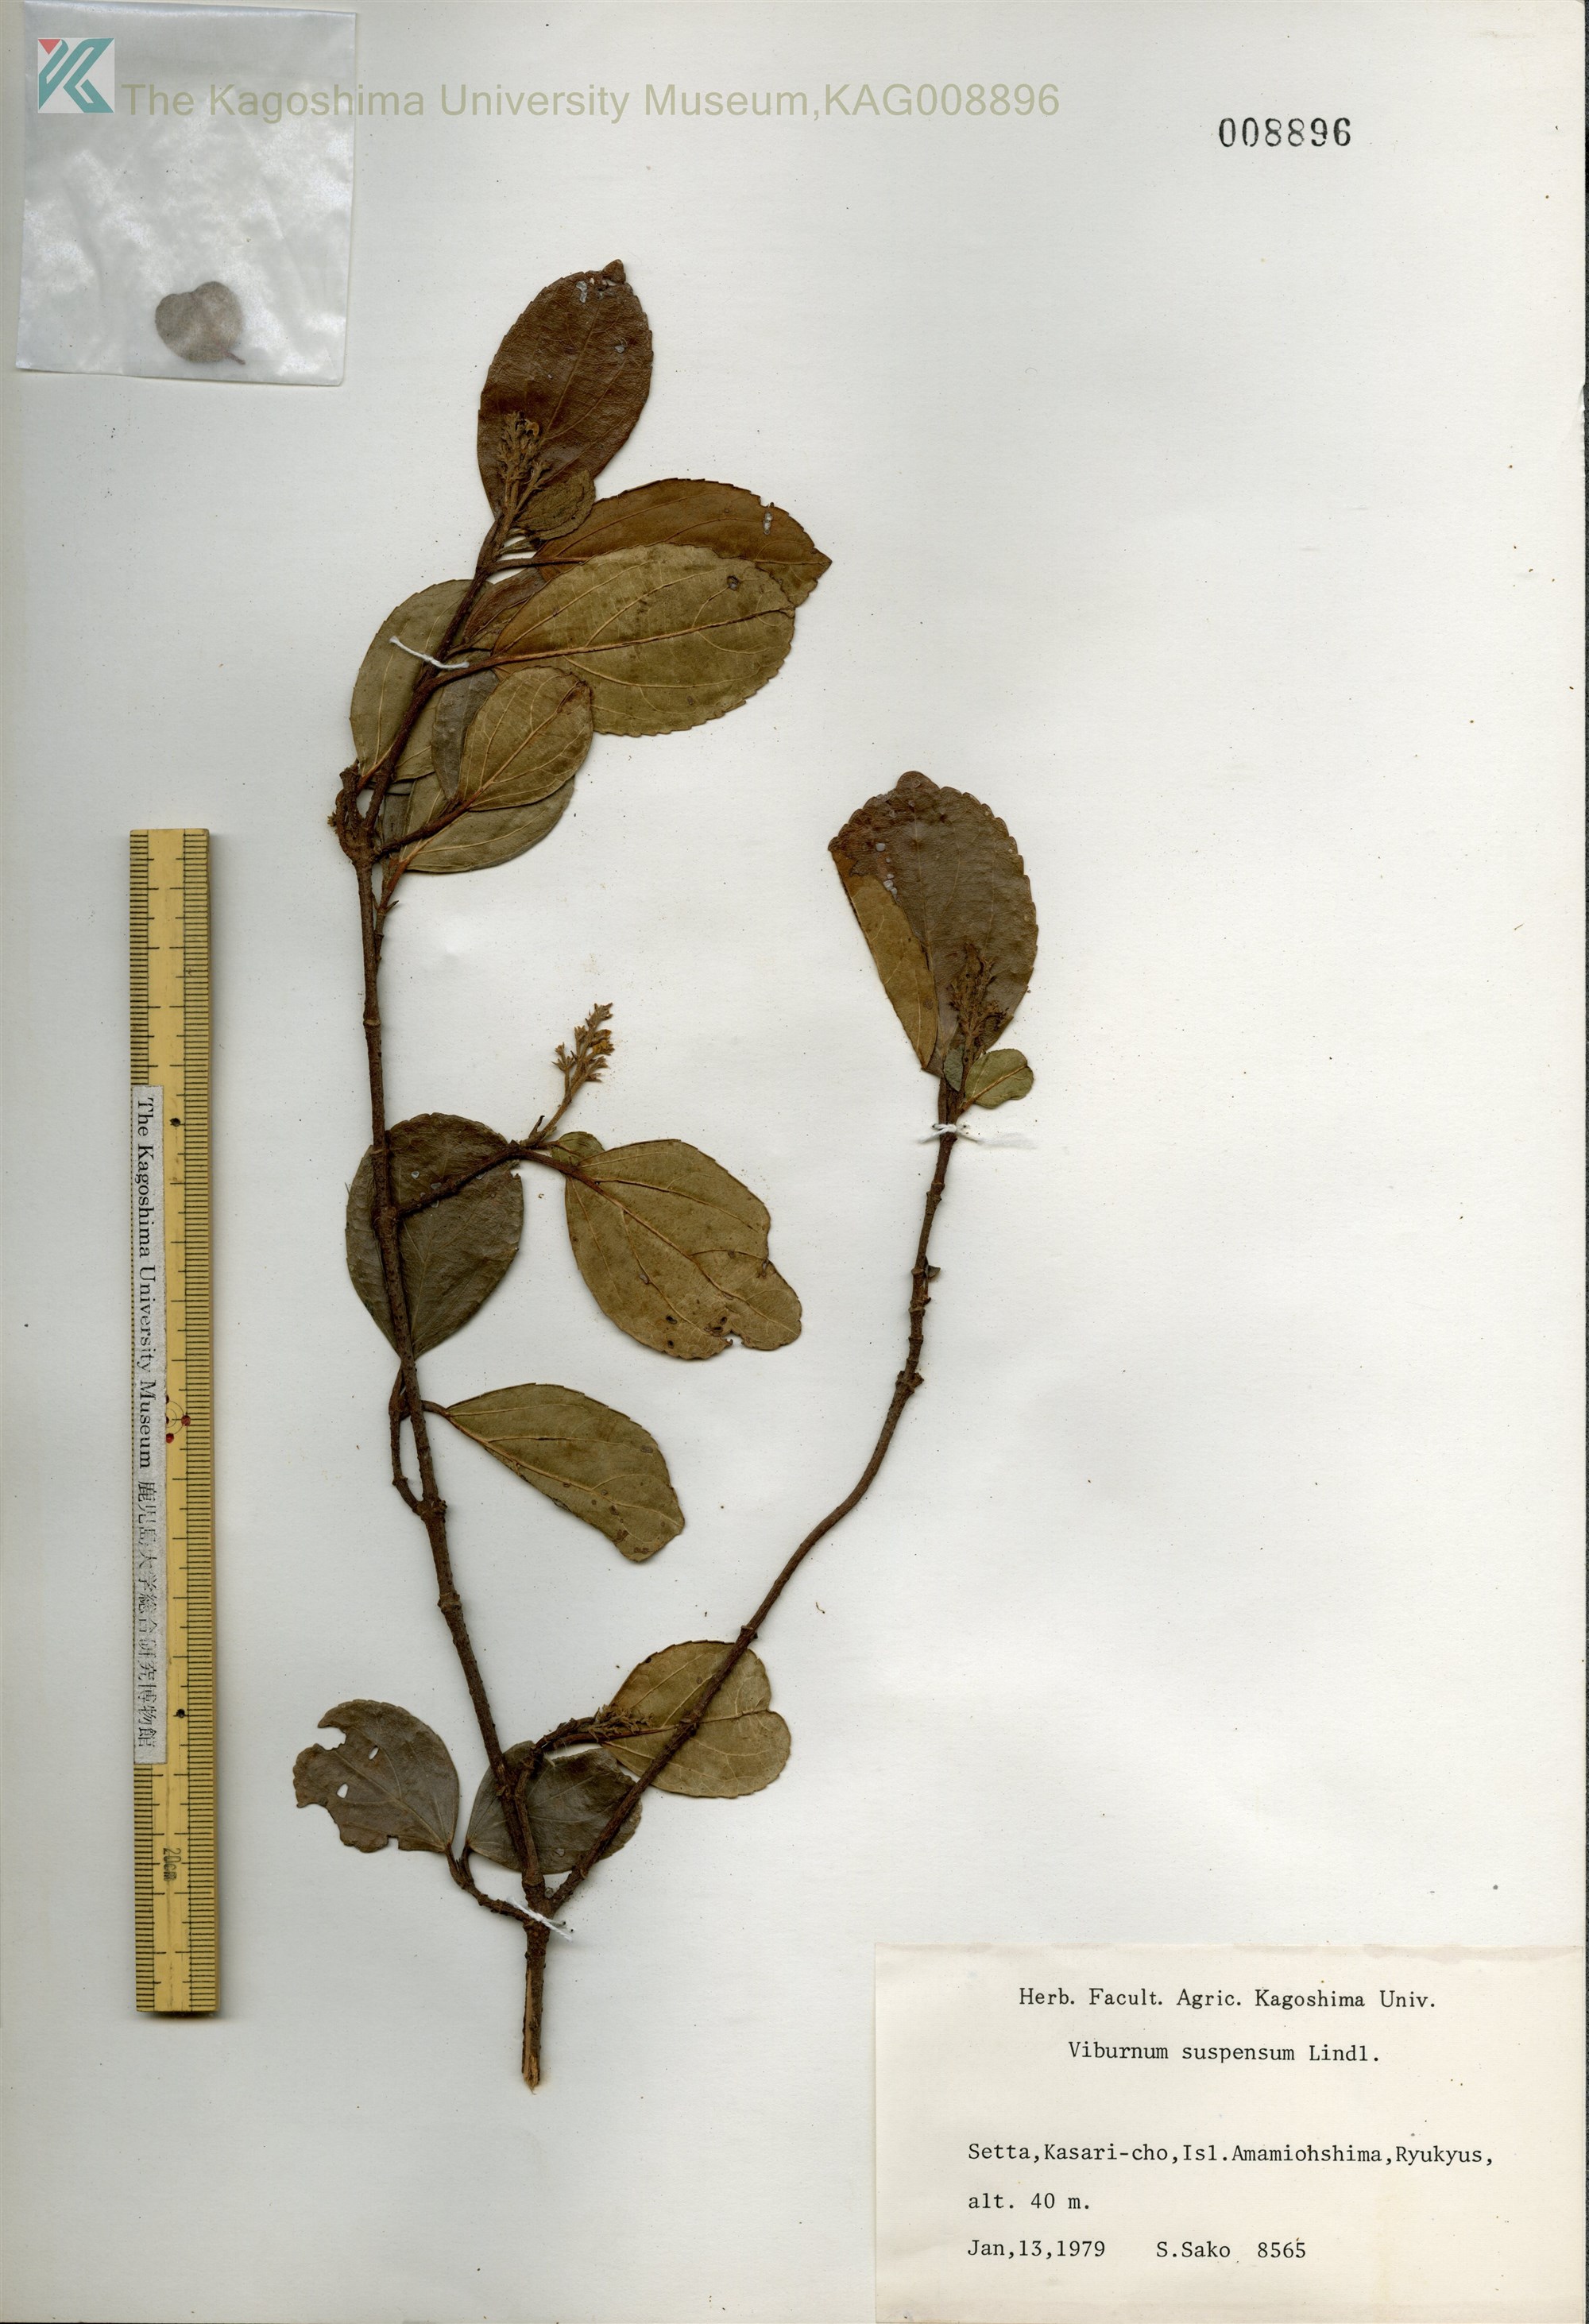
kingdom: Plantae
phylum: Tracheophyta
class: Magnoliopsida
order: Dipsacales
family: Viburnaceae
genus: Viburnum
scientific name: Viburnum suspensum
